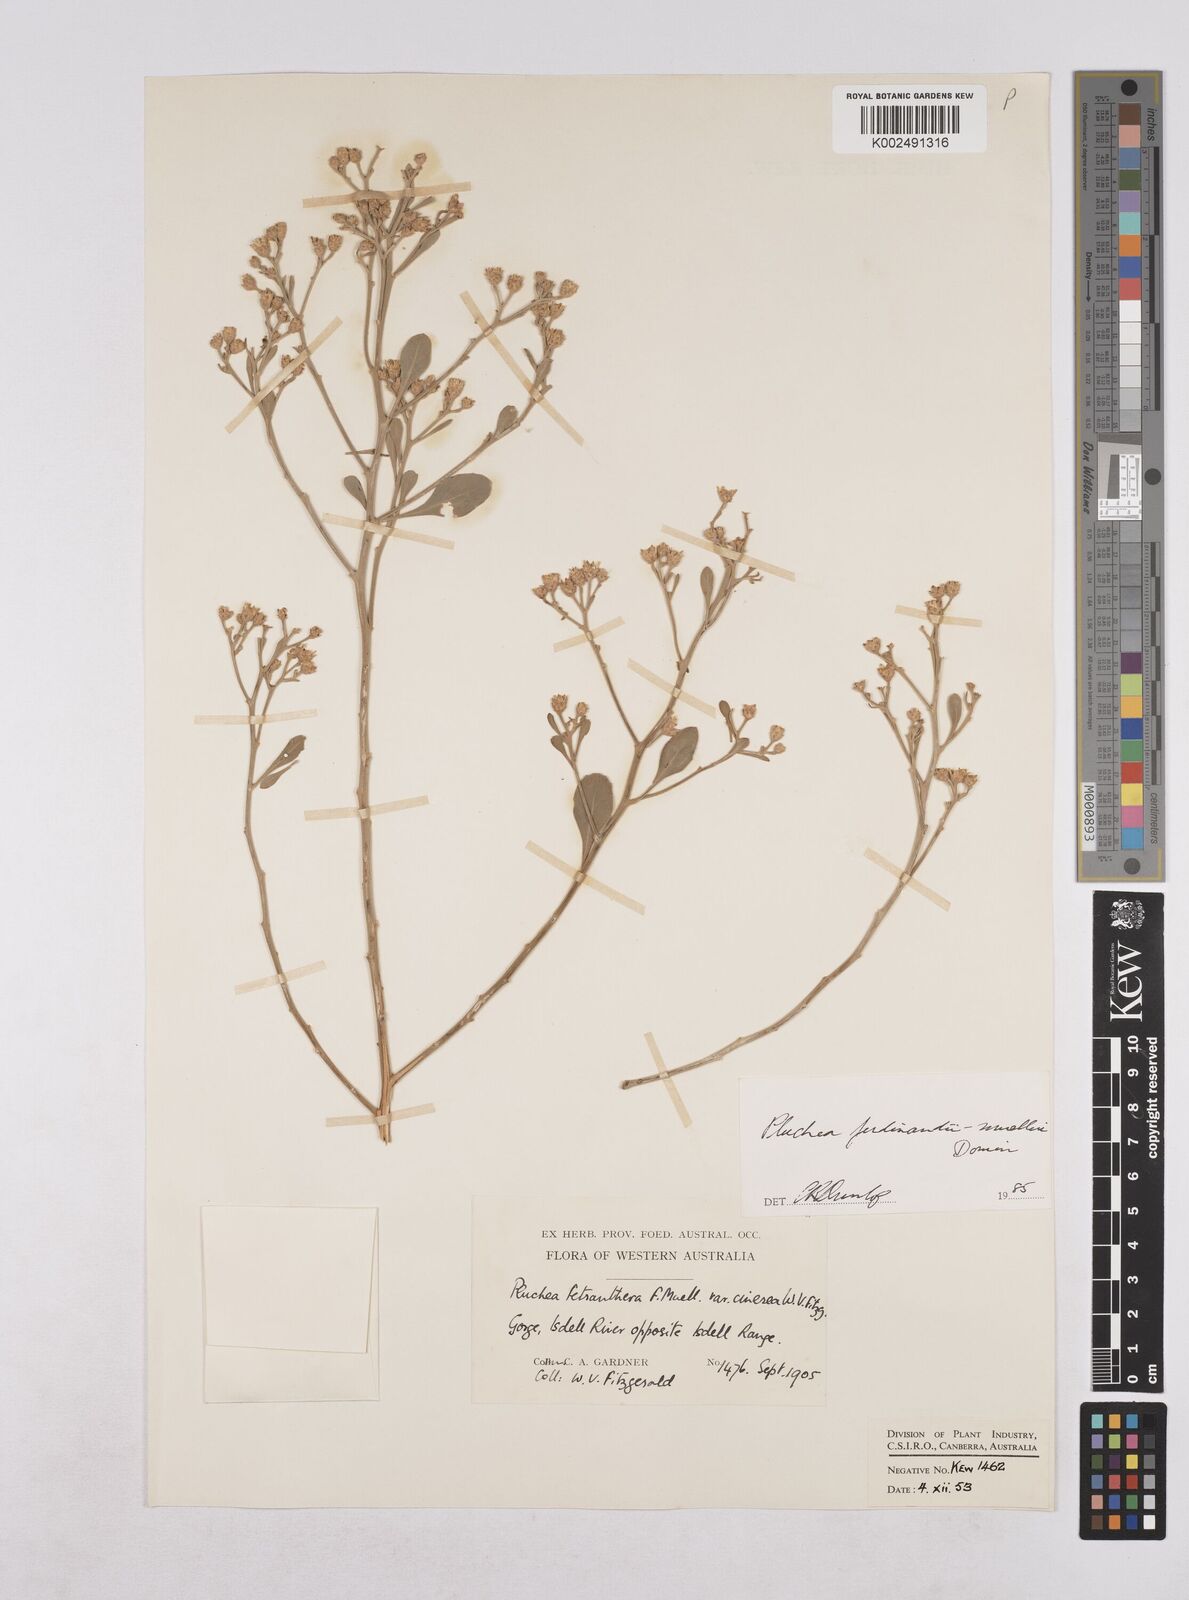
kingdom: Plantae
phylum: Tracheophyta
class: Magnoliopsida
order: Asterales
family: Asteraceae
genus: Pluchea
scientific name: Pluchea ferdinandi-muelleri
